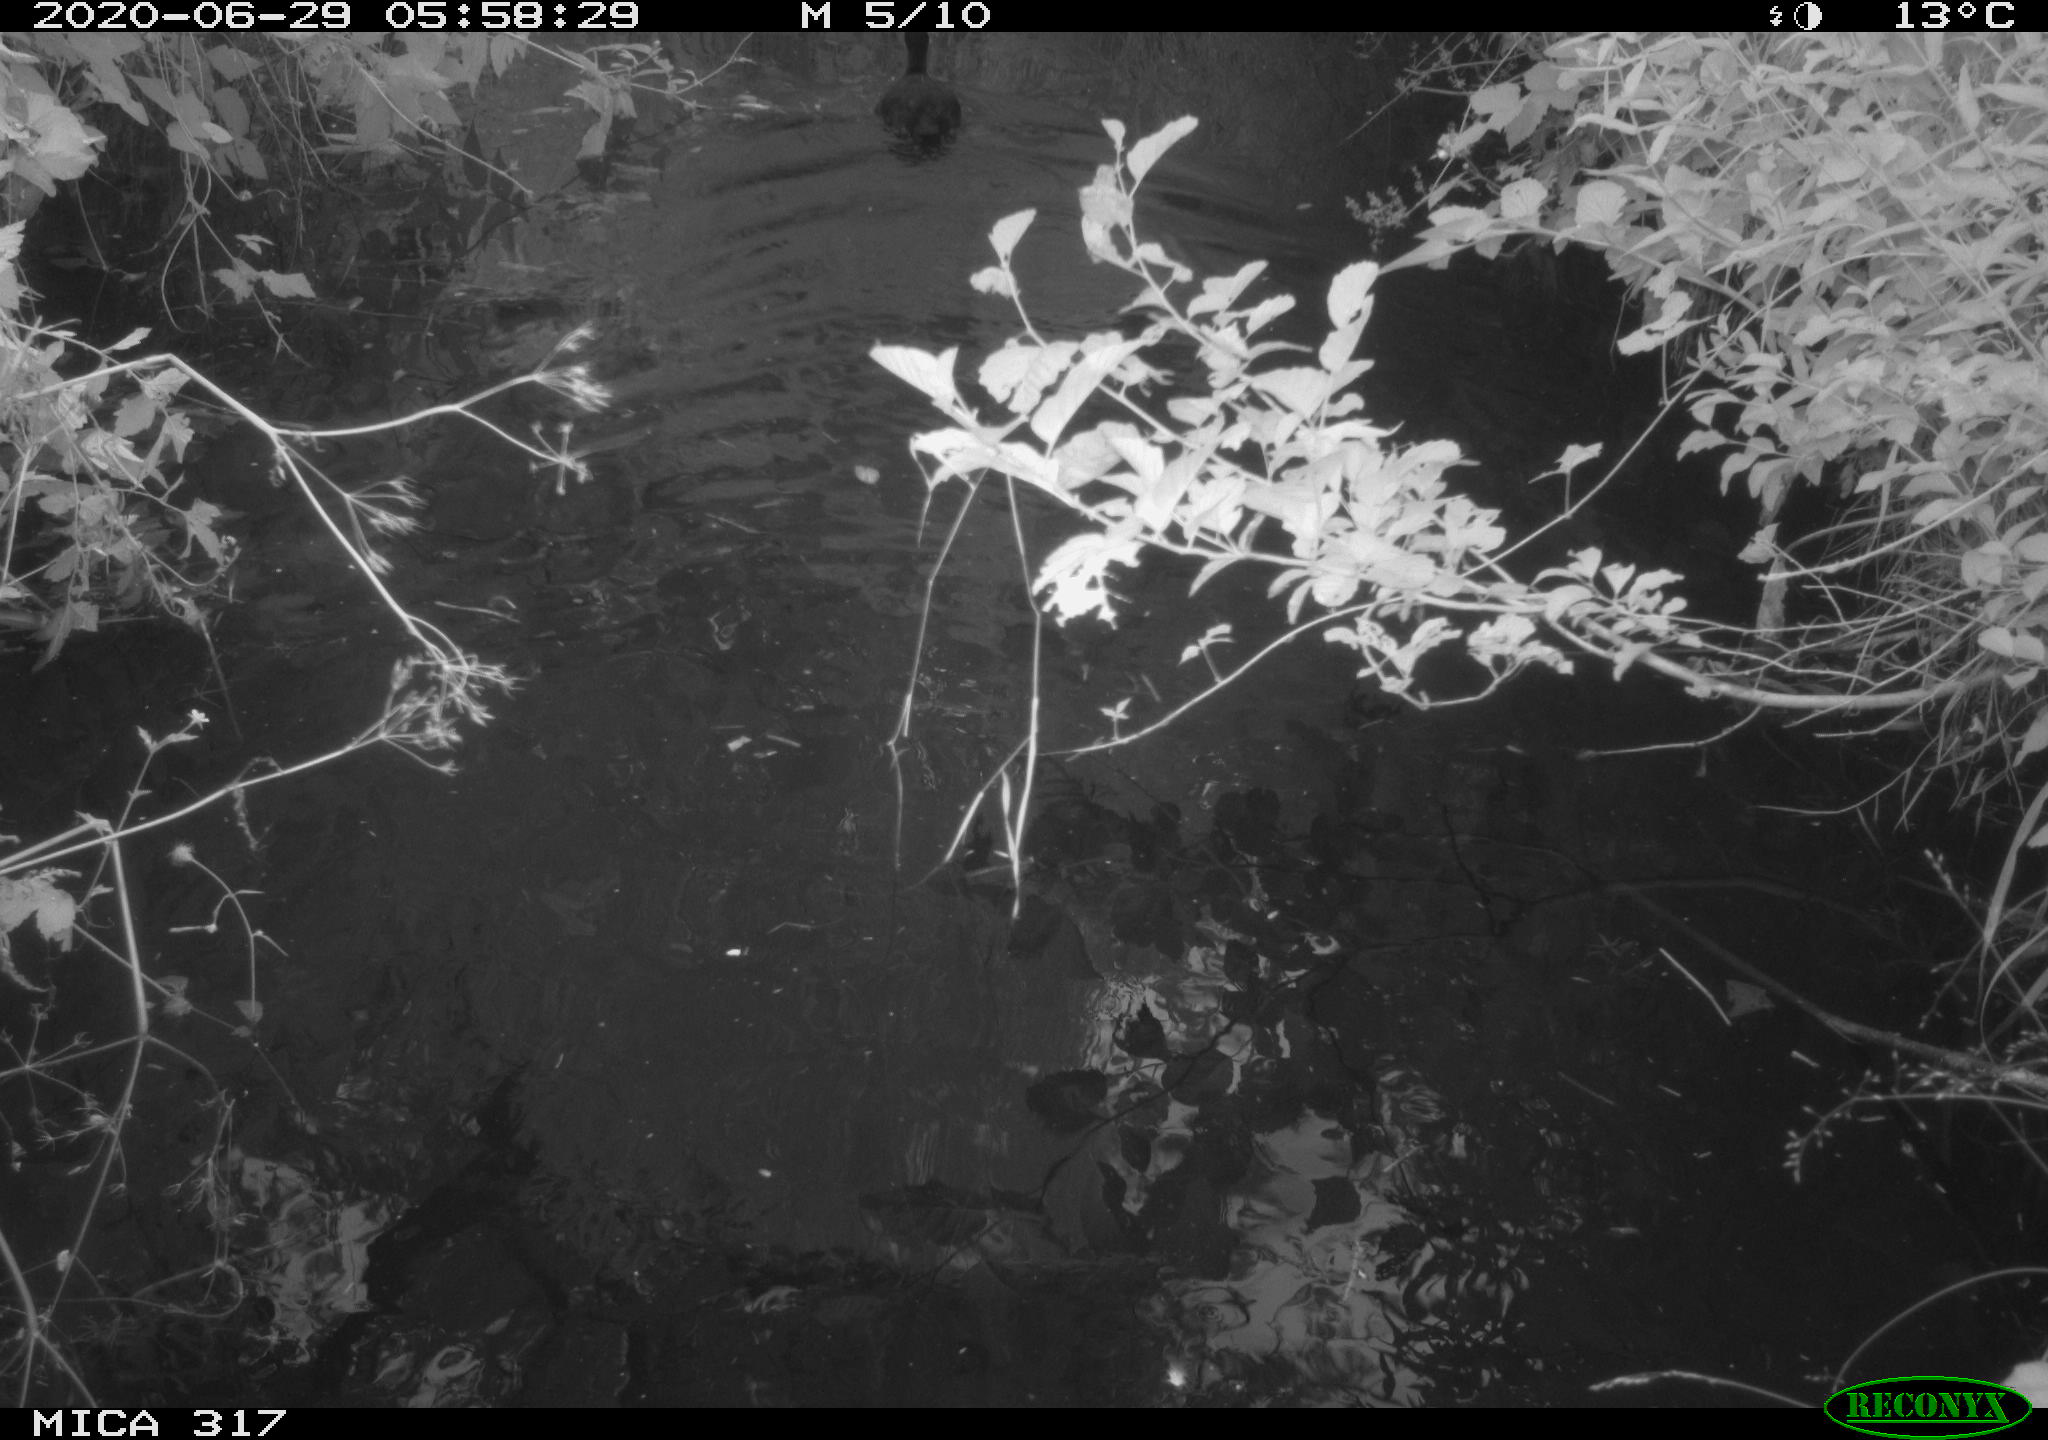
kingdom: Animalia
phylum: Chordata
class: Aves
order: Gruiformes
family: Rallidae
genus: Fulica
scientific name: Fulica atra
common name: Eurasian coot
